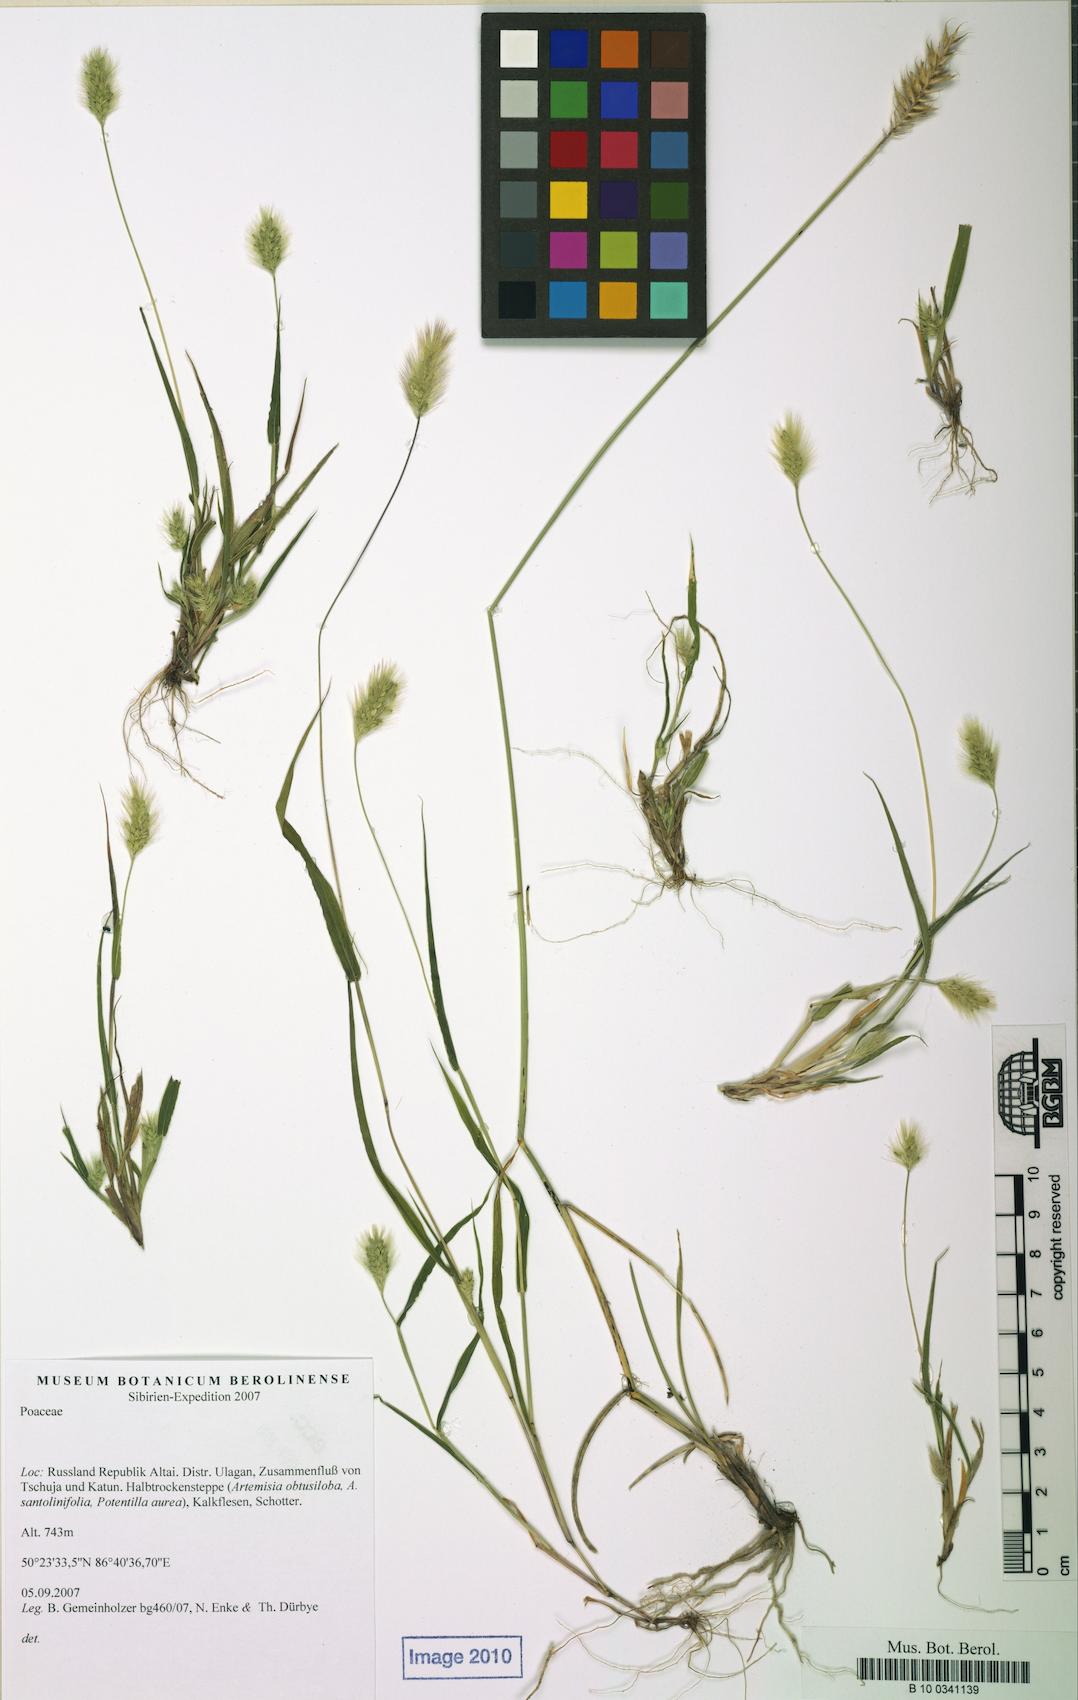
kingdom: Plantae
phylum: Tracheophyta
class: Liliopsida
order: Poales
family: Poaceae
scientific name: Poaceae
